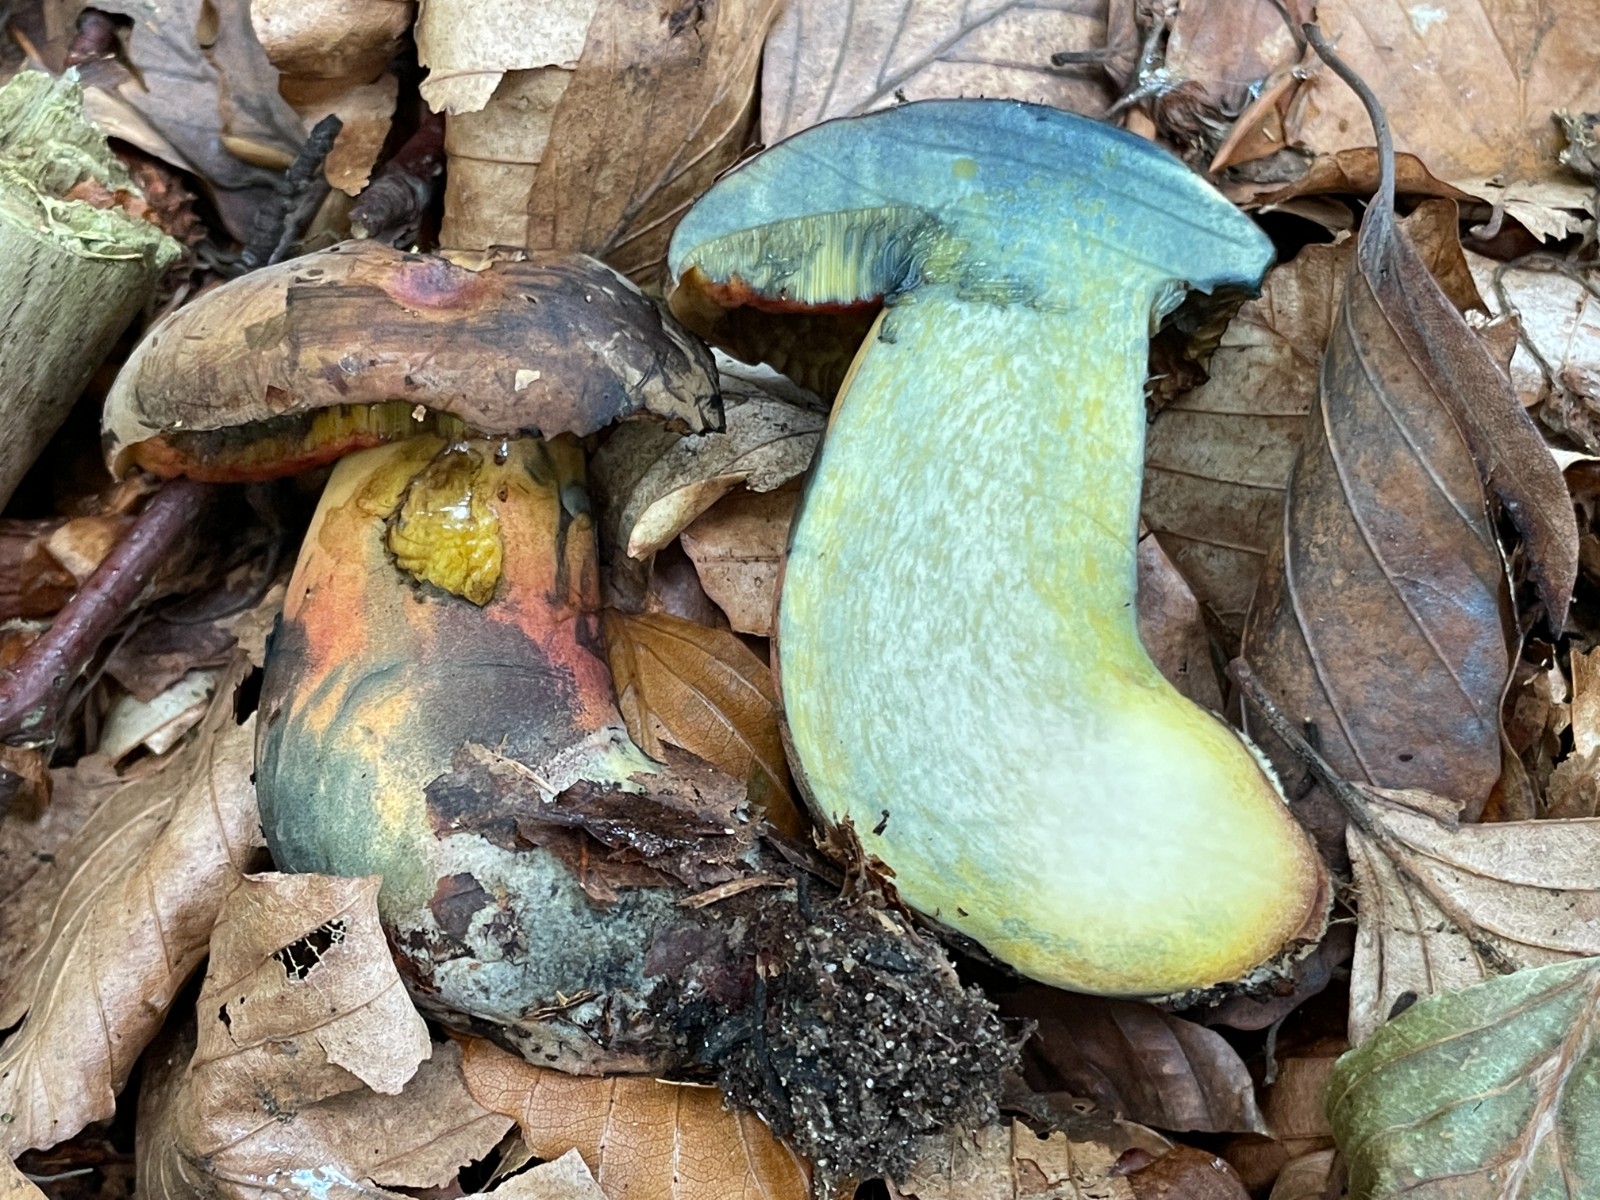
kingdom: Fungi
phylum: Basidiomycota
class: Agaricomycetes
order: Boletales
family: Boletaceae
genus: Neoboletus
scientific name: Neoboletus xanthopus
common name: finprikket indigorørhat
